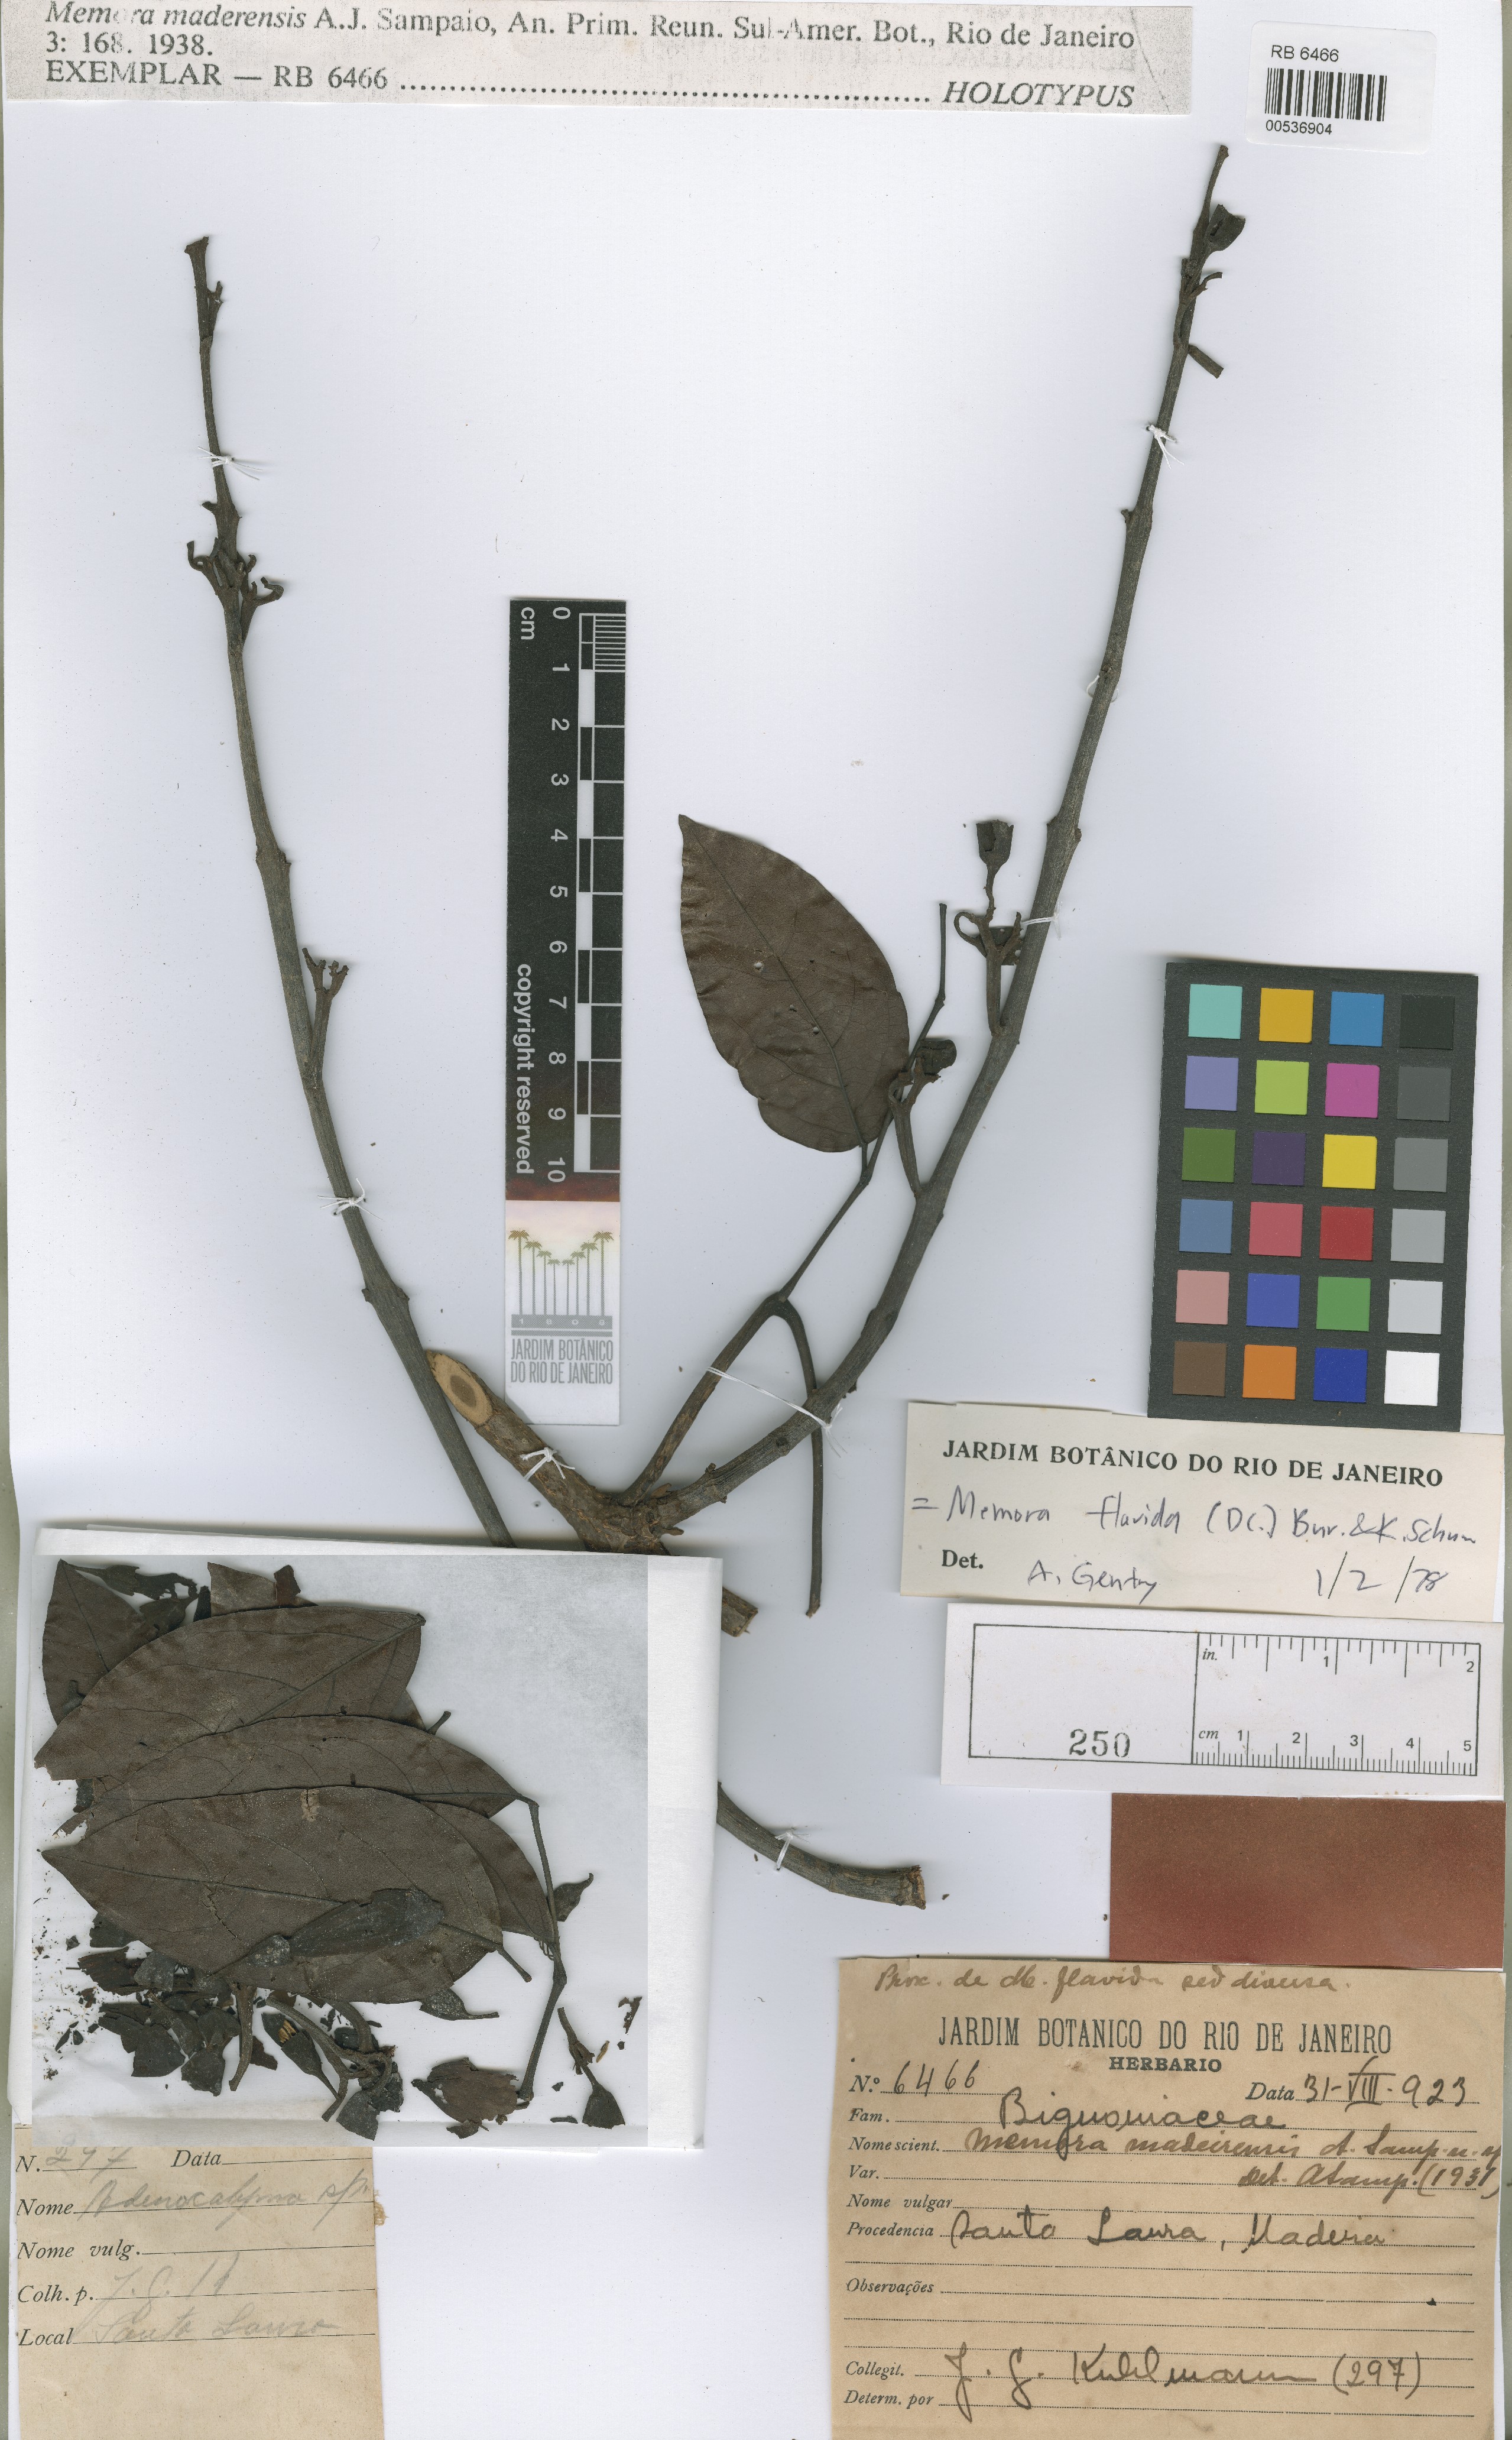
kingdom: Plantae
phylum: Tracheophyta
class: Magnoliopsida
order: Lamiales
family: Bignoniaceae
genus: Adenocalymma
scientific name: Adenocalymma Memora madeirensis
